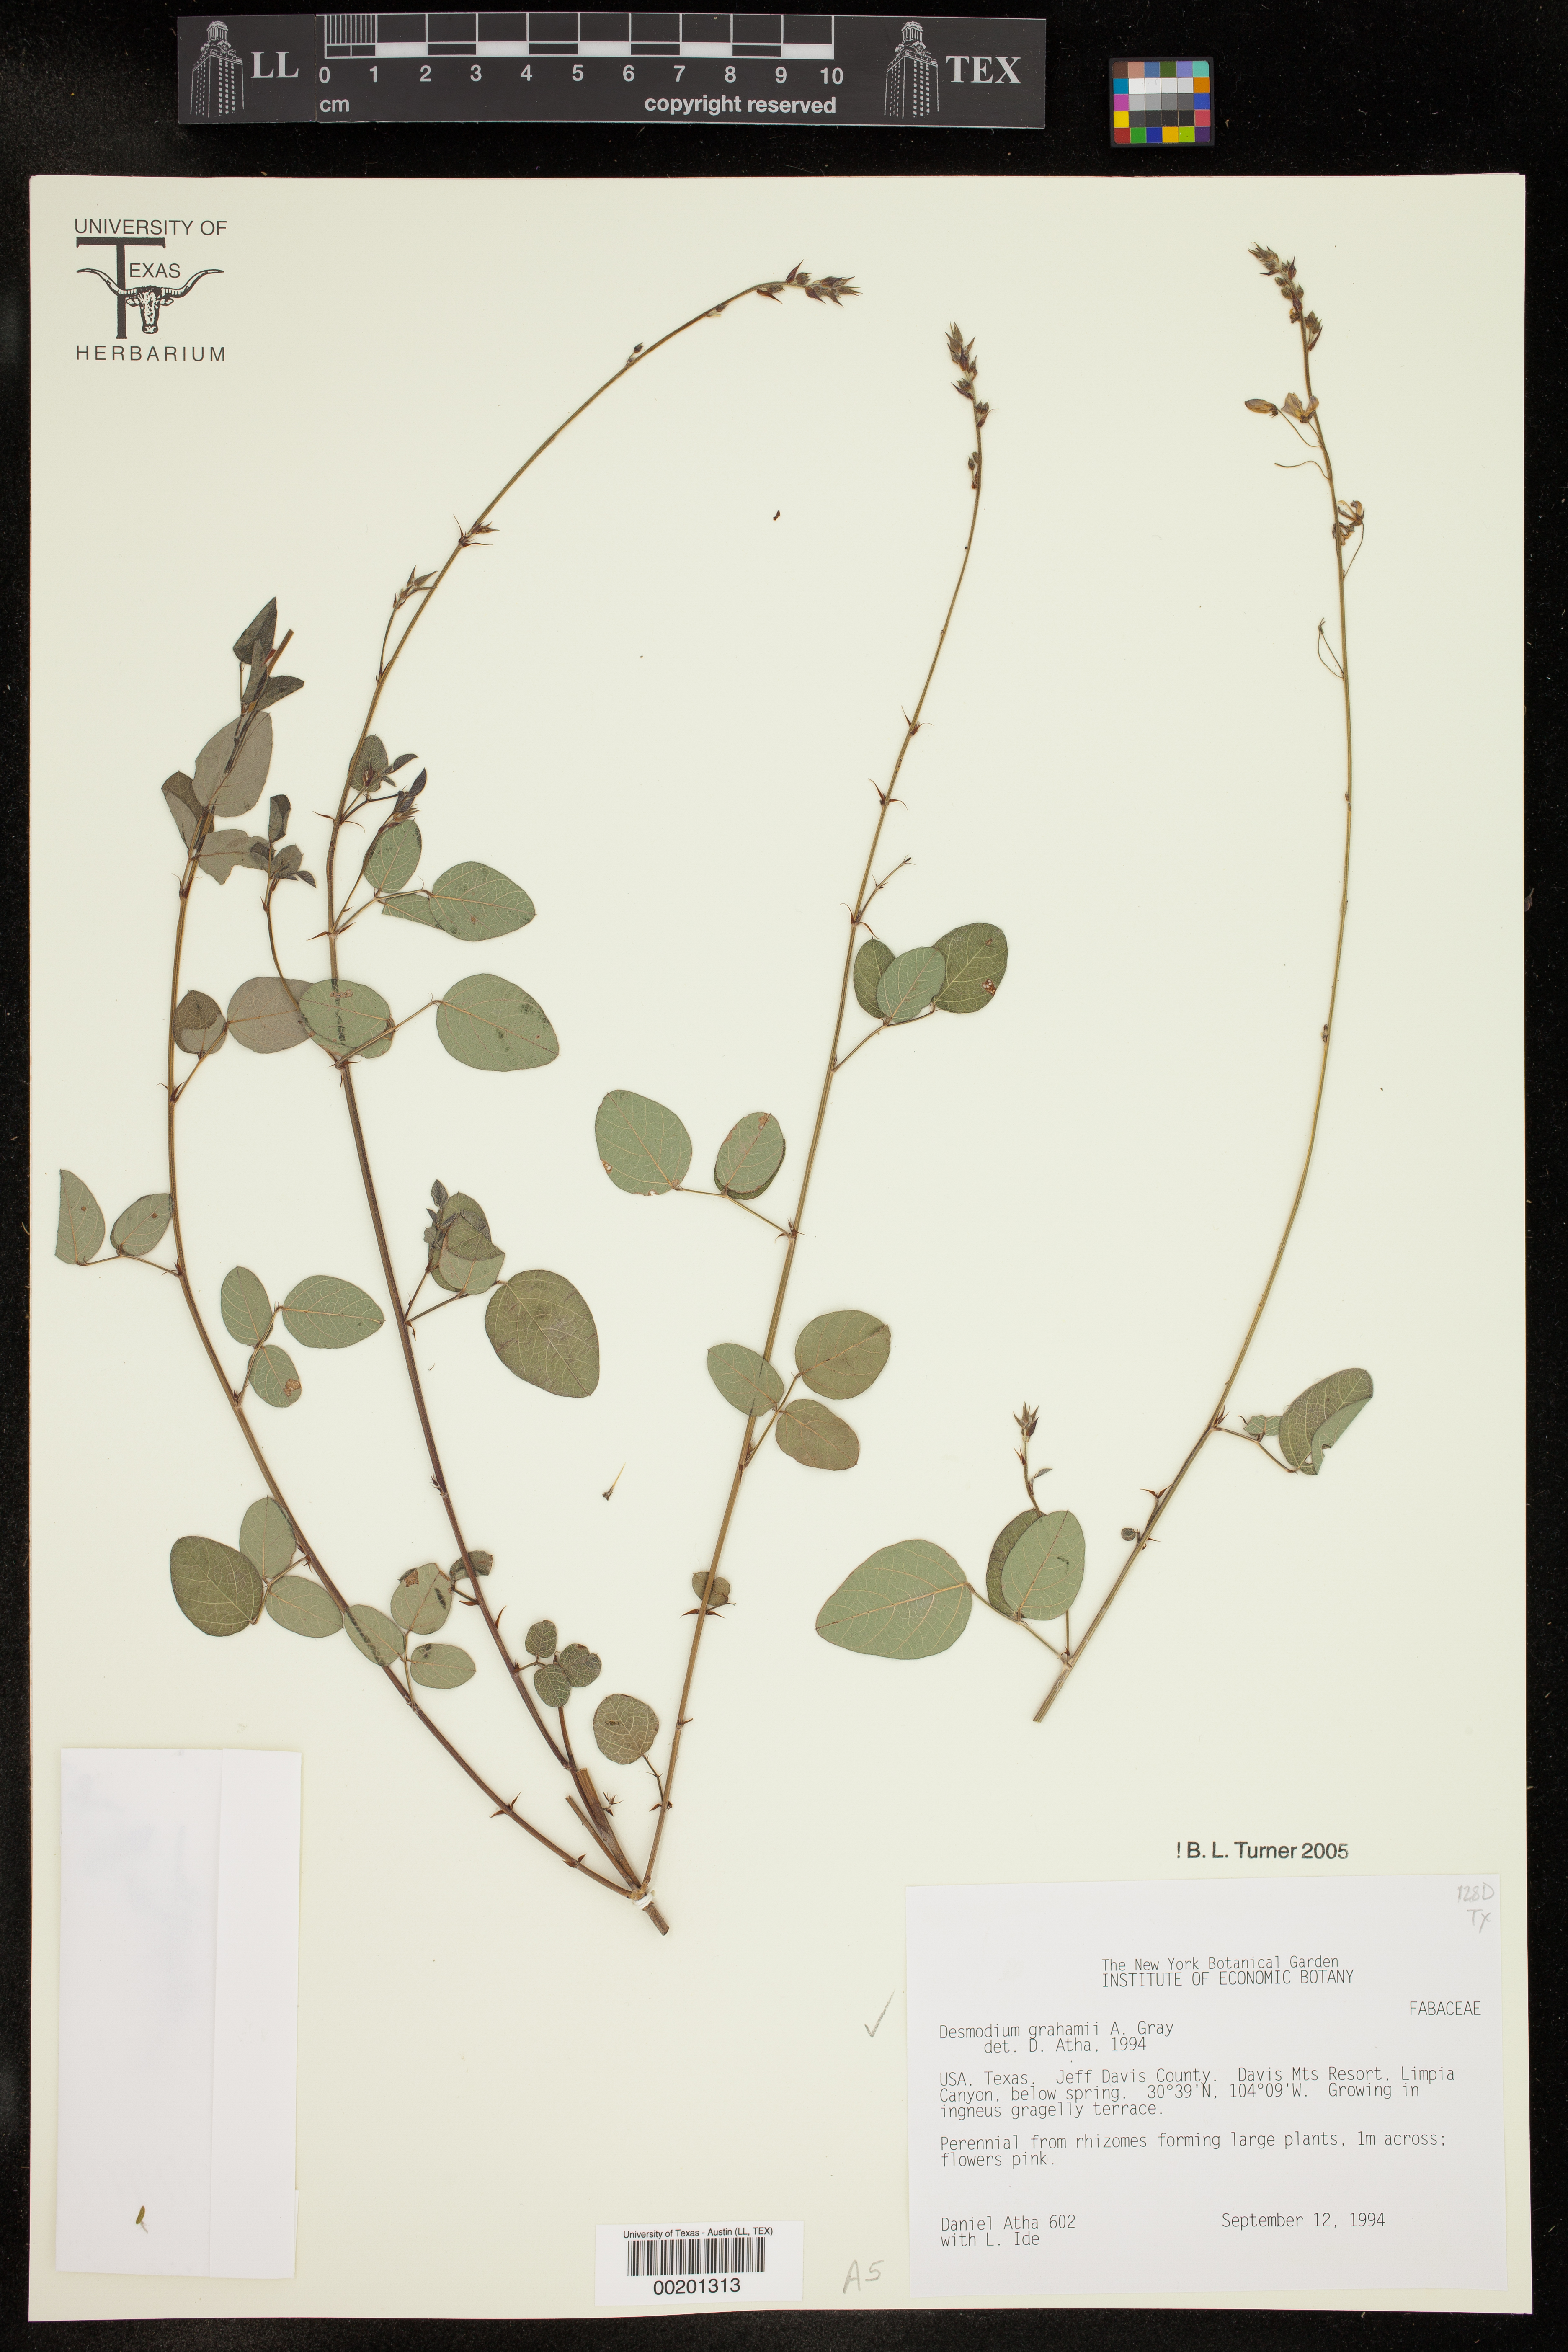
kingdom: Plantae
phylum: Tracheophyta
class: Magnoliopsida
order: Fabales
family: Fabaceae
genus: Desmodium
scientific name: Desmodium grahamii
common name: Graham's tick-trefoil
